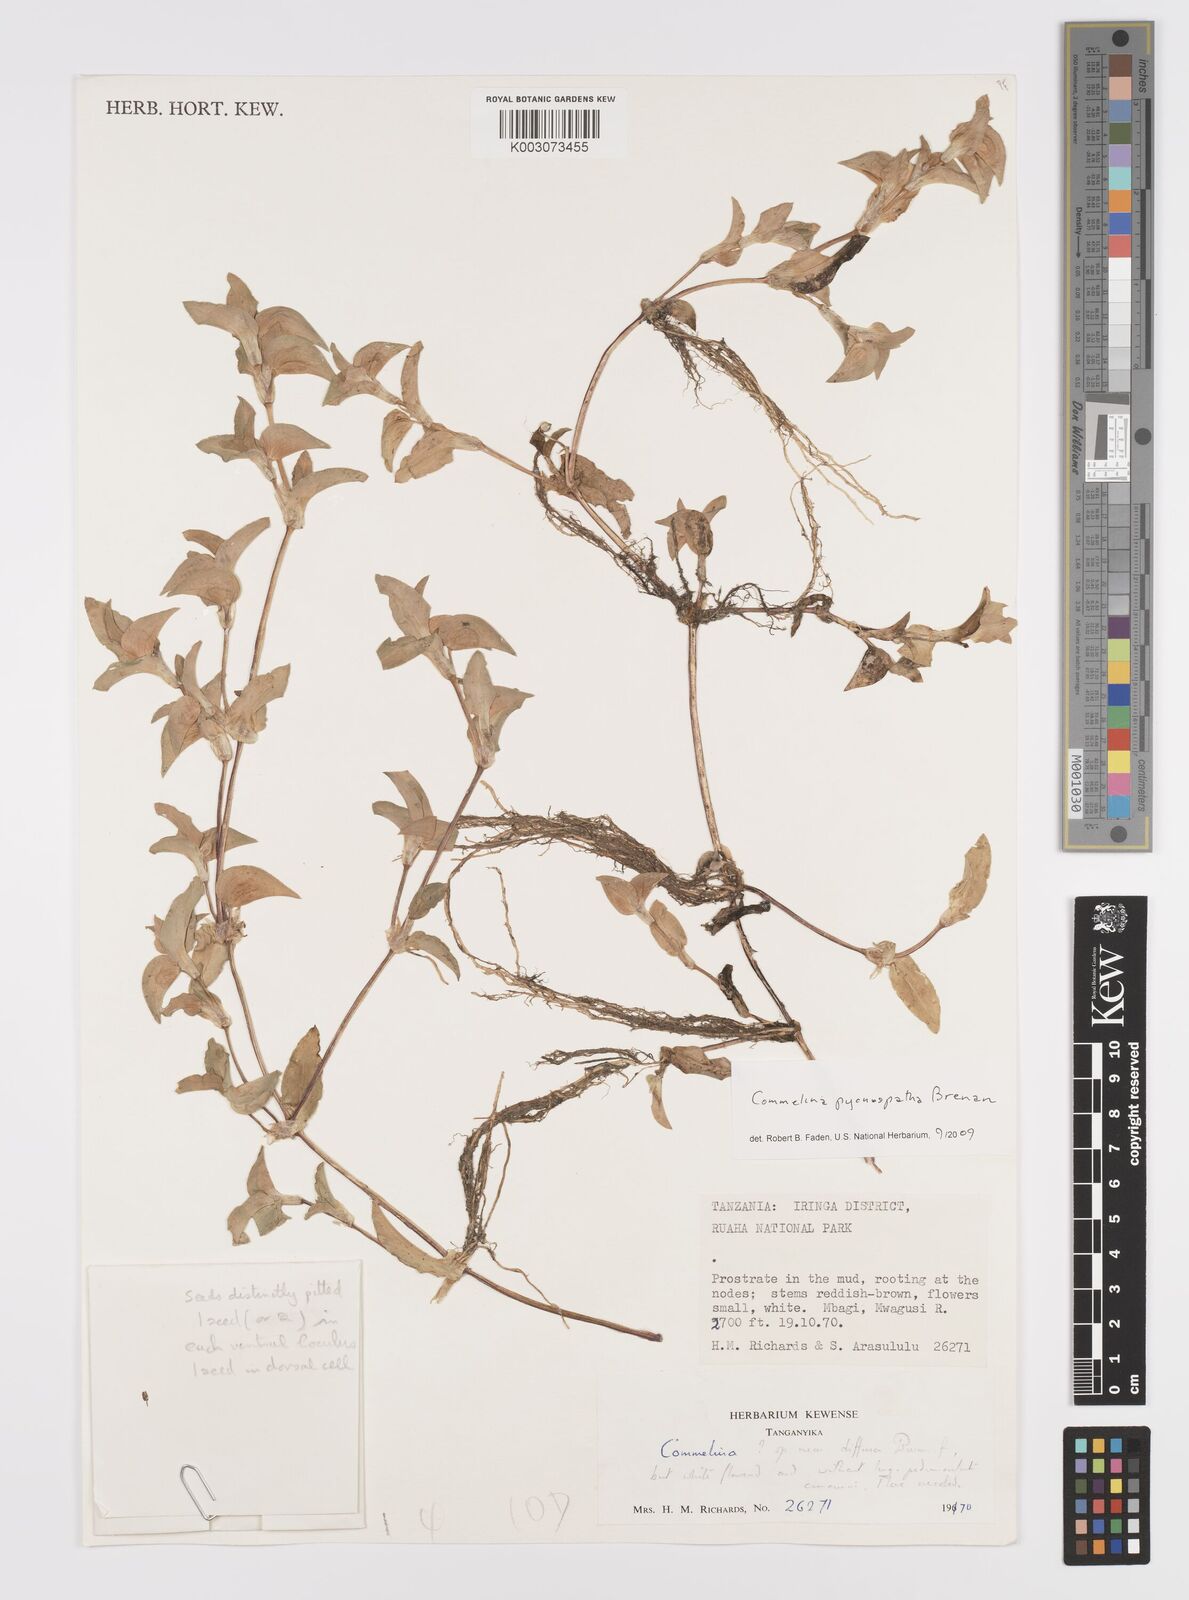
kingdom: Plantae
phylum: Tracheophyta
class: Liliopsida
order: Commelinales
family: Commelinaceae
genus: Commelina
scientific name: Commelina pycnospatha
